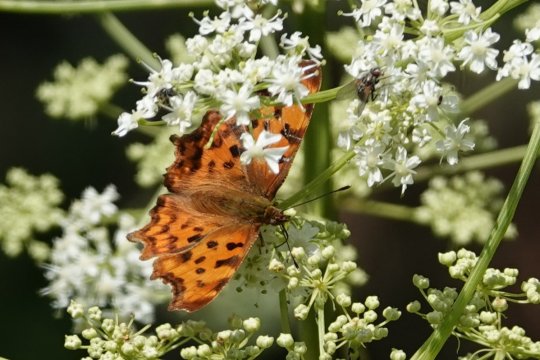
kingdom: Animalia
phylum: Arthropoda
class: Insecta
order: Lepidoptera
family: Nymphalidae
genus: Polygonia
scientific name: Polygonia c-album
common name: Comma
